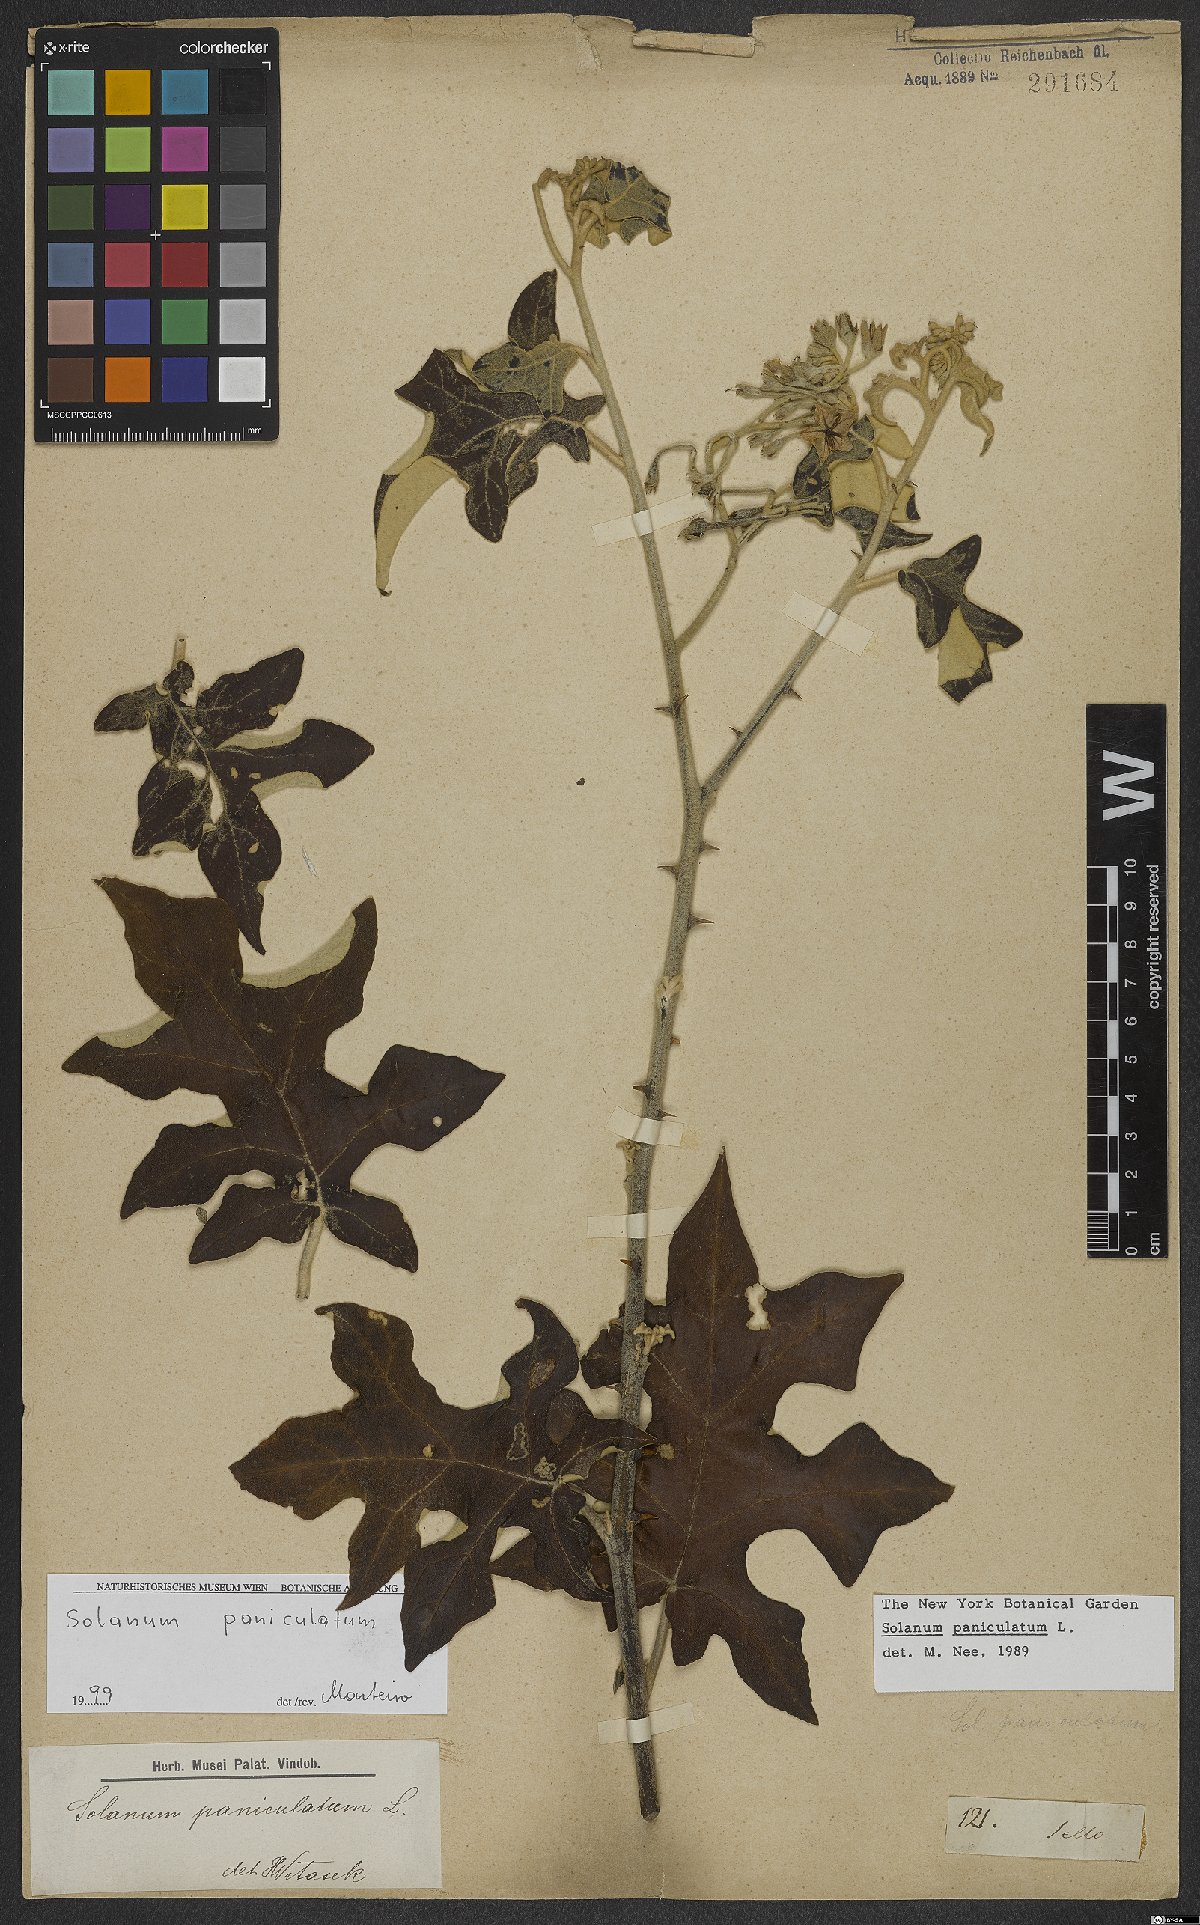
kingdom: Plantae
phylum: Tracheophyta
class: Magnoliopsida
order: Solanales
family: Solanaceae
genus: Solanum
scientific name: Solanum paniculatum
